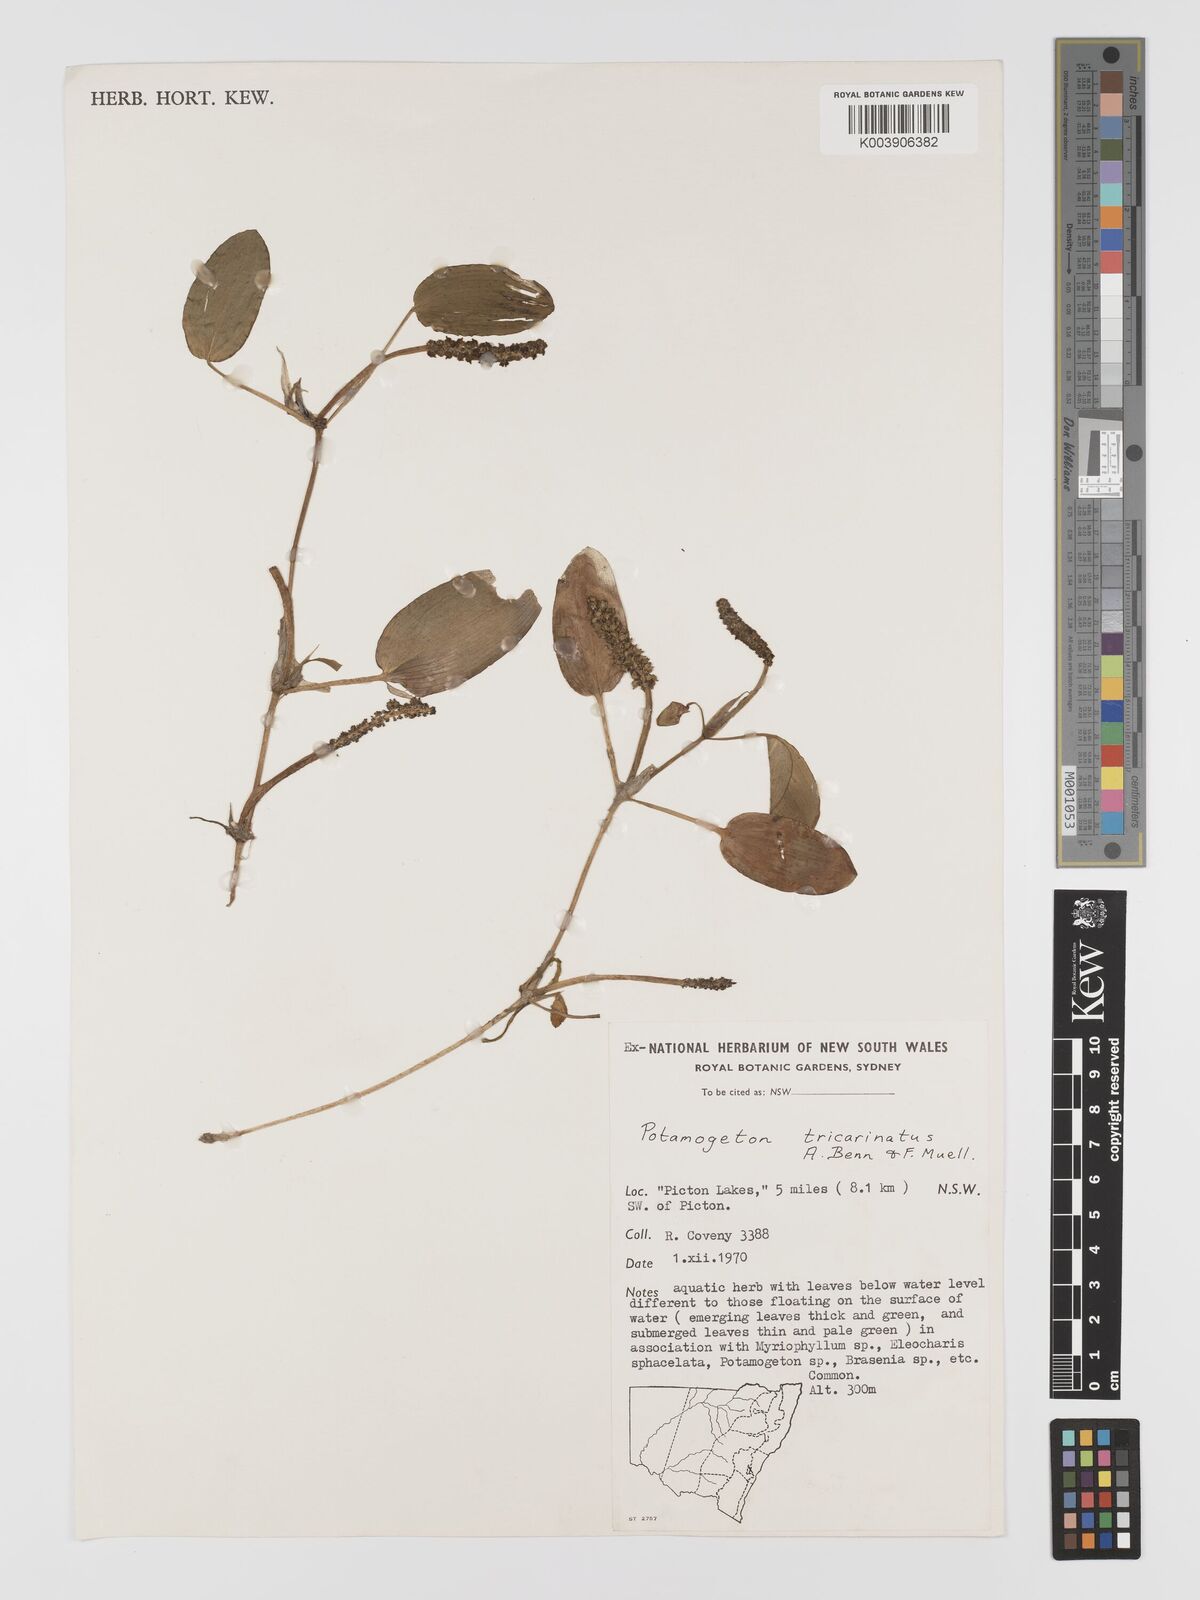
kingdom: Plantae
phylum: Tracheophyta
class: Liliopsida
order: Alismatales
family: Potamogetonaceae
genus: Potamogeton
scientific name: Potamogeton tricarinatus
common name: Pondweed
